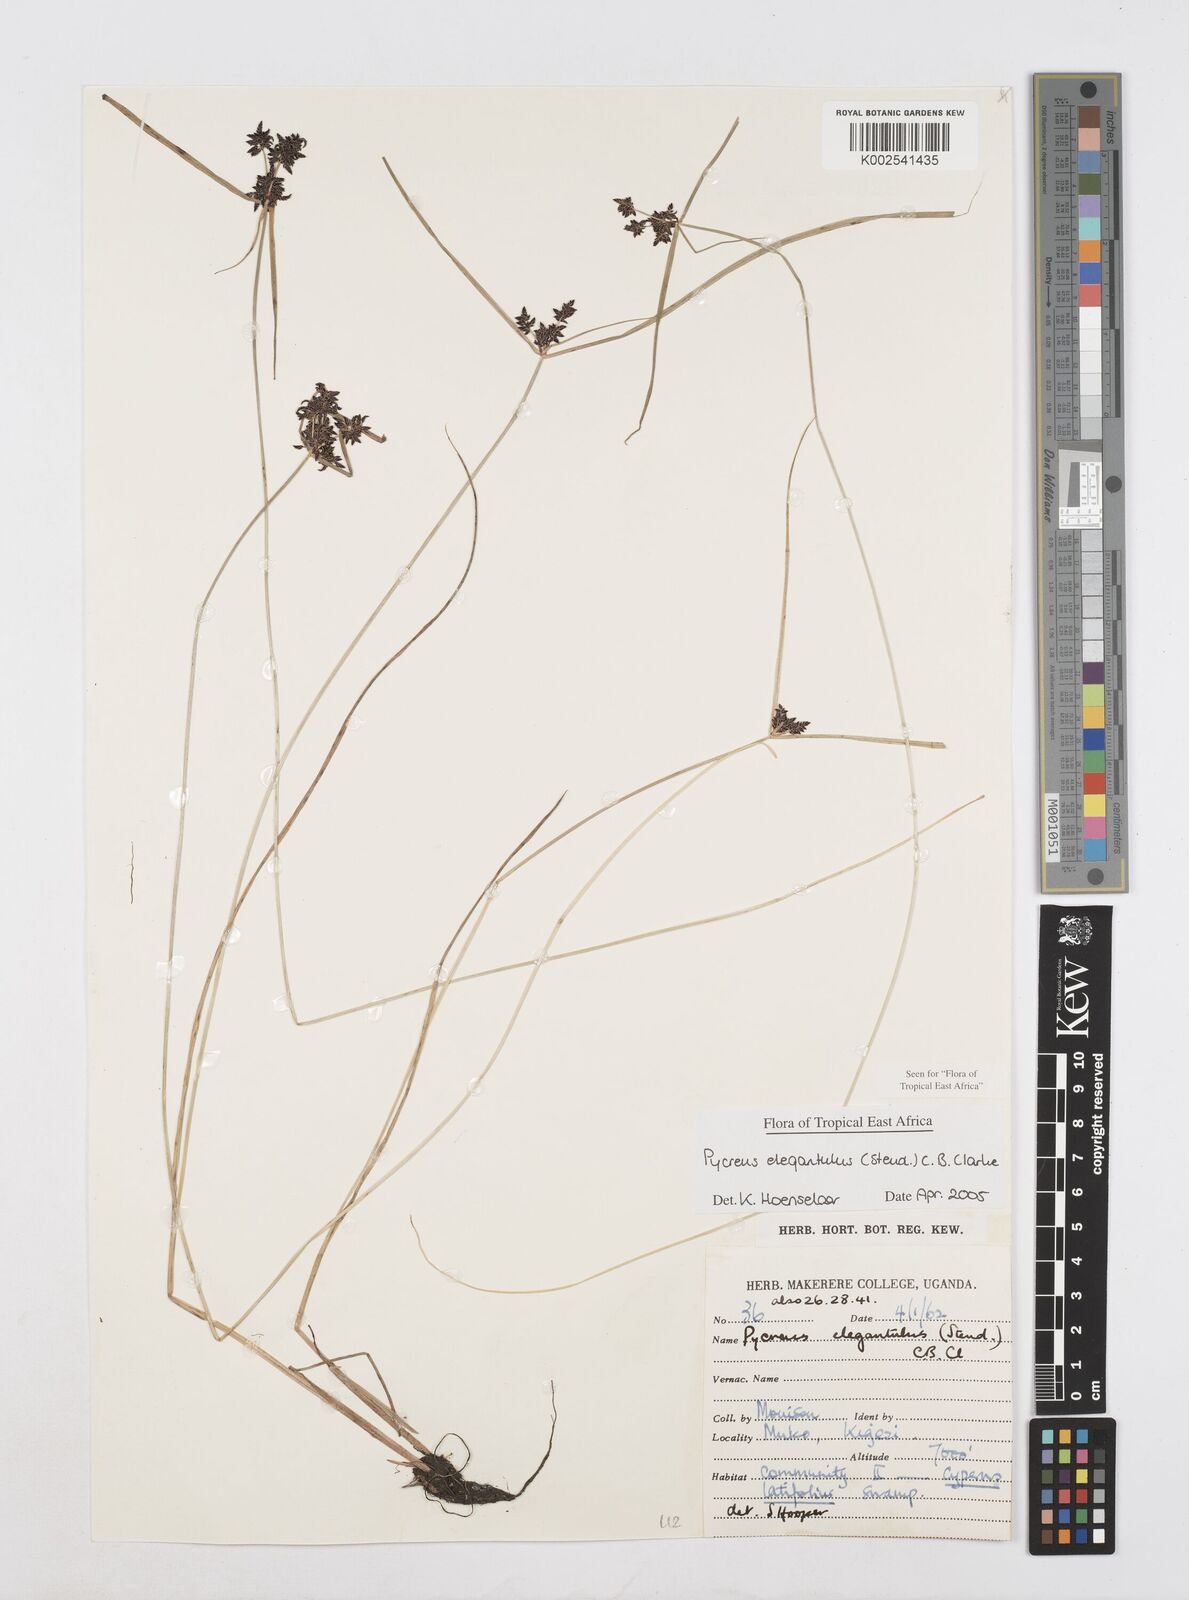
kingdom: Plantae
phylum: Tracheophyta
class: Liliopsida
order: Poales
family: Cyperaceae
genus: Cyperus
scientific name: Cyperus elegantulus
